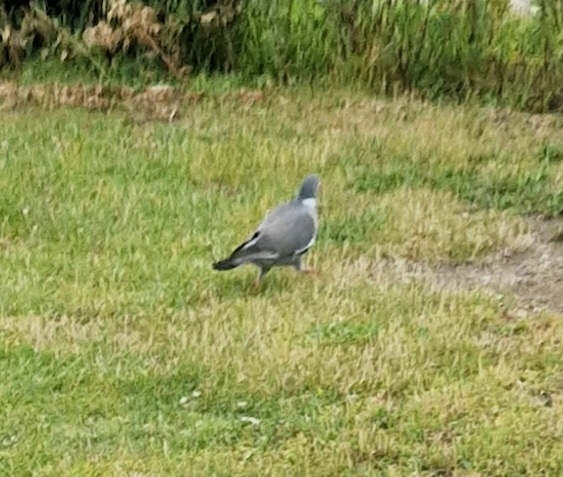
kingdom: Animalia
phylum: Chordata
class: Aves
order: Columbiformes
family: Columbidae
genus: Columba
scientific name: Columba palumbus
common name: Ringdue
